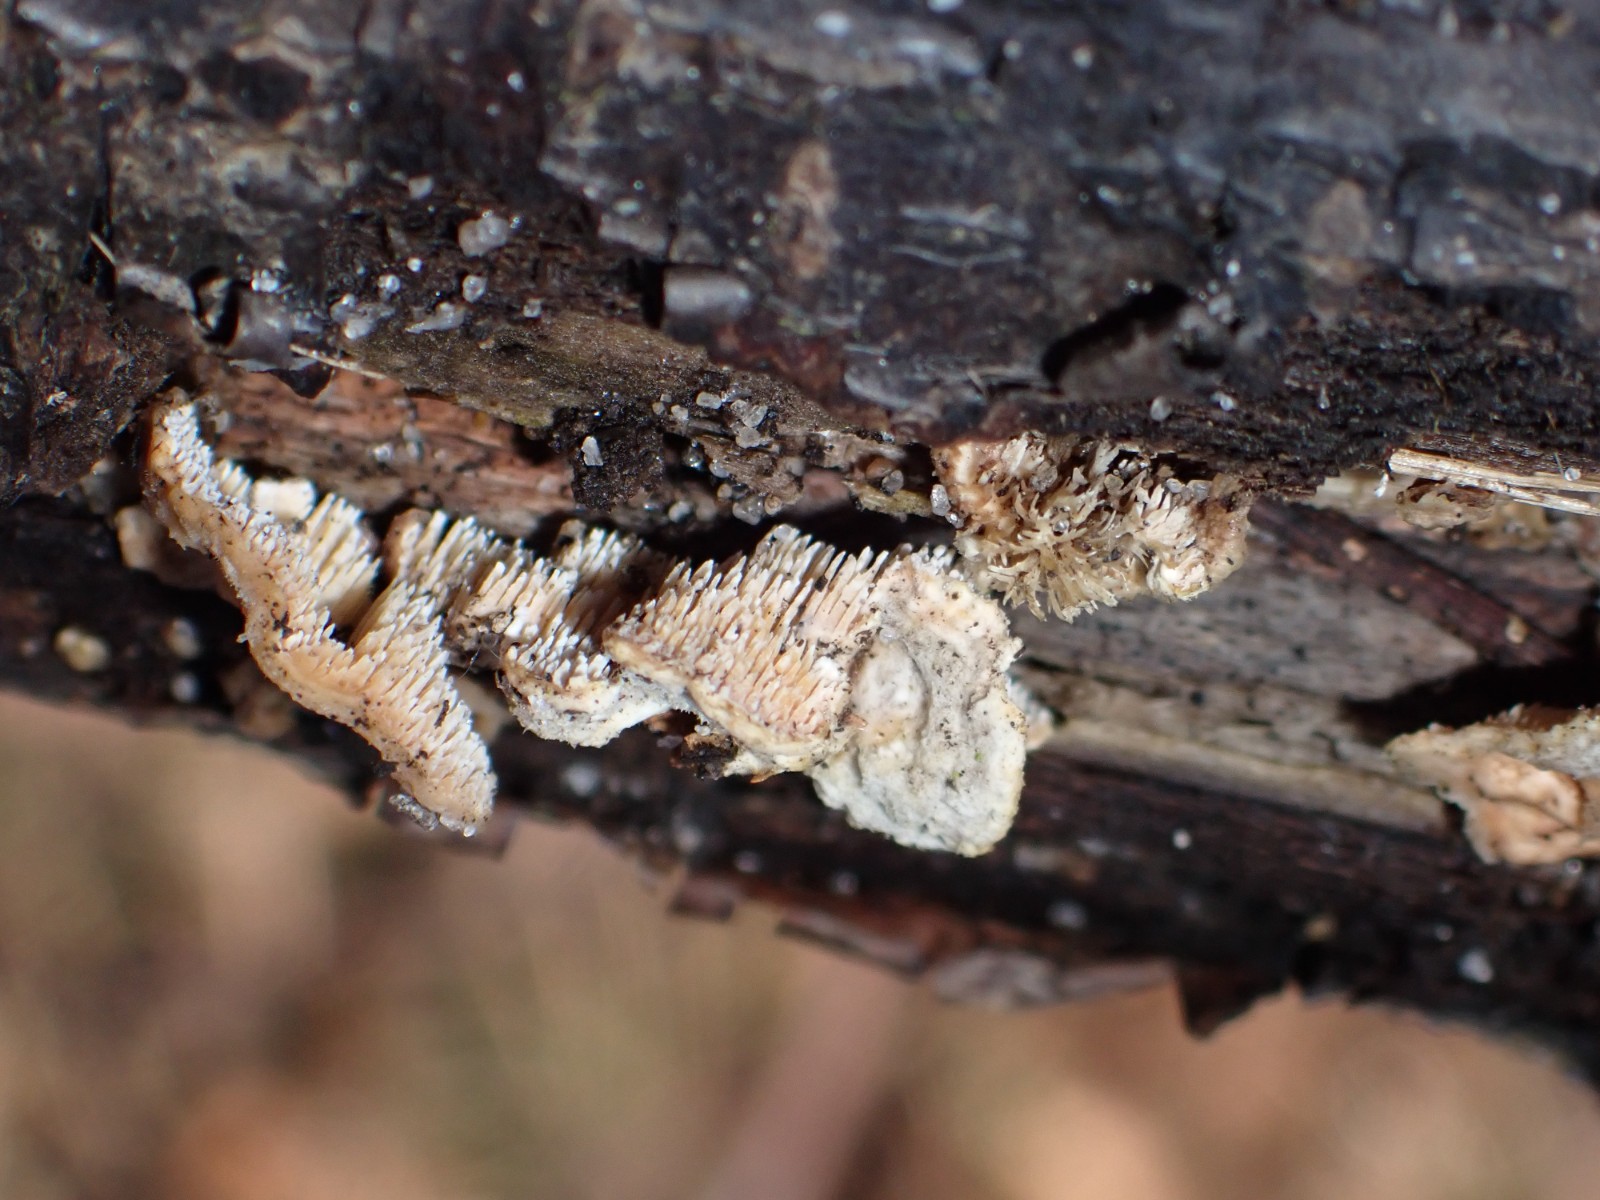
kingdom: Fungi
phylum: Basidiomycota
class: Agaricomycetes
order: Polyporales
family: Steccherinaceae
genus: Steccherinum
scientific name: Steccherinum bourdotii
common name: hat-skønpig
